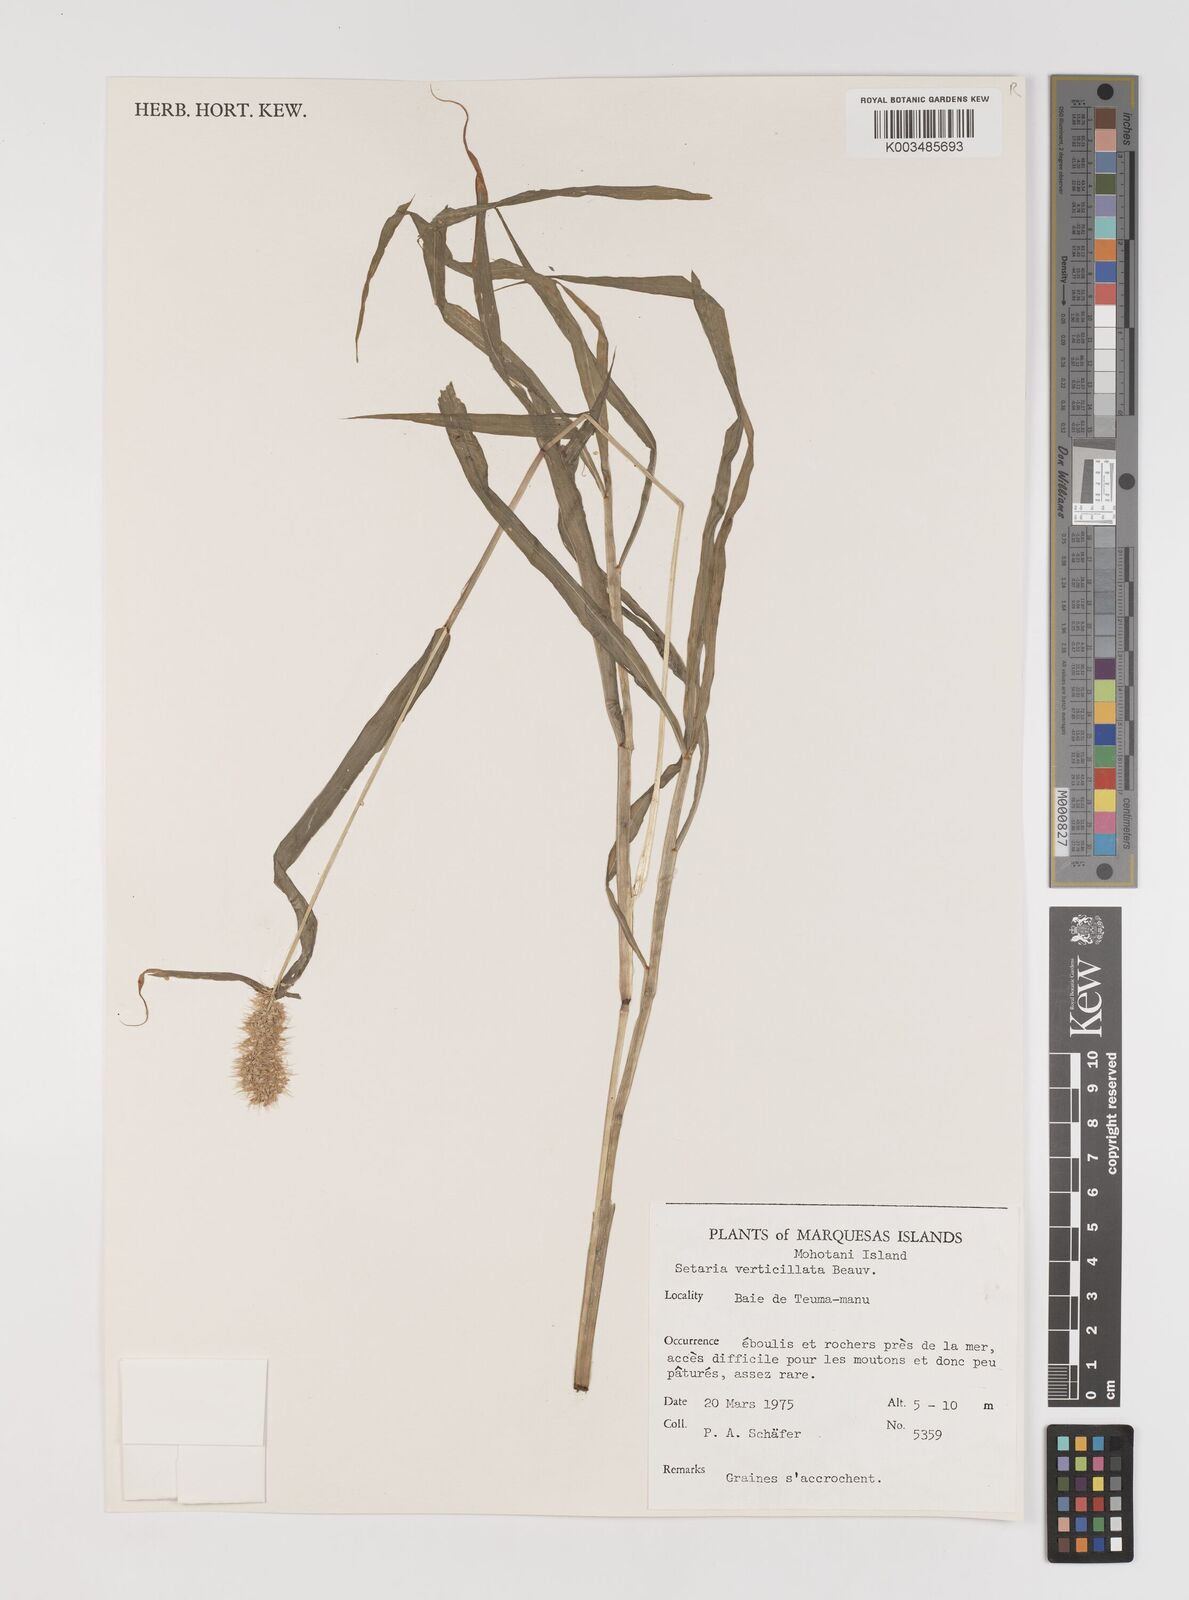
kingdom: Plantae
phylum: Tracheophyta
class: Liliopsida
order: Poales
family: Poaceae
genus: Setaria
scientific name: Setaria verticillata
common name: Hooked bristlegrass
